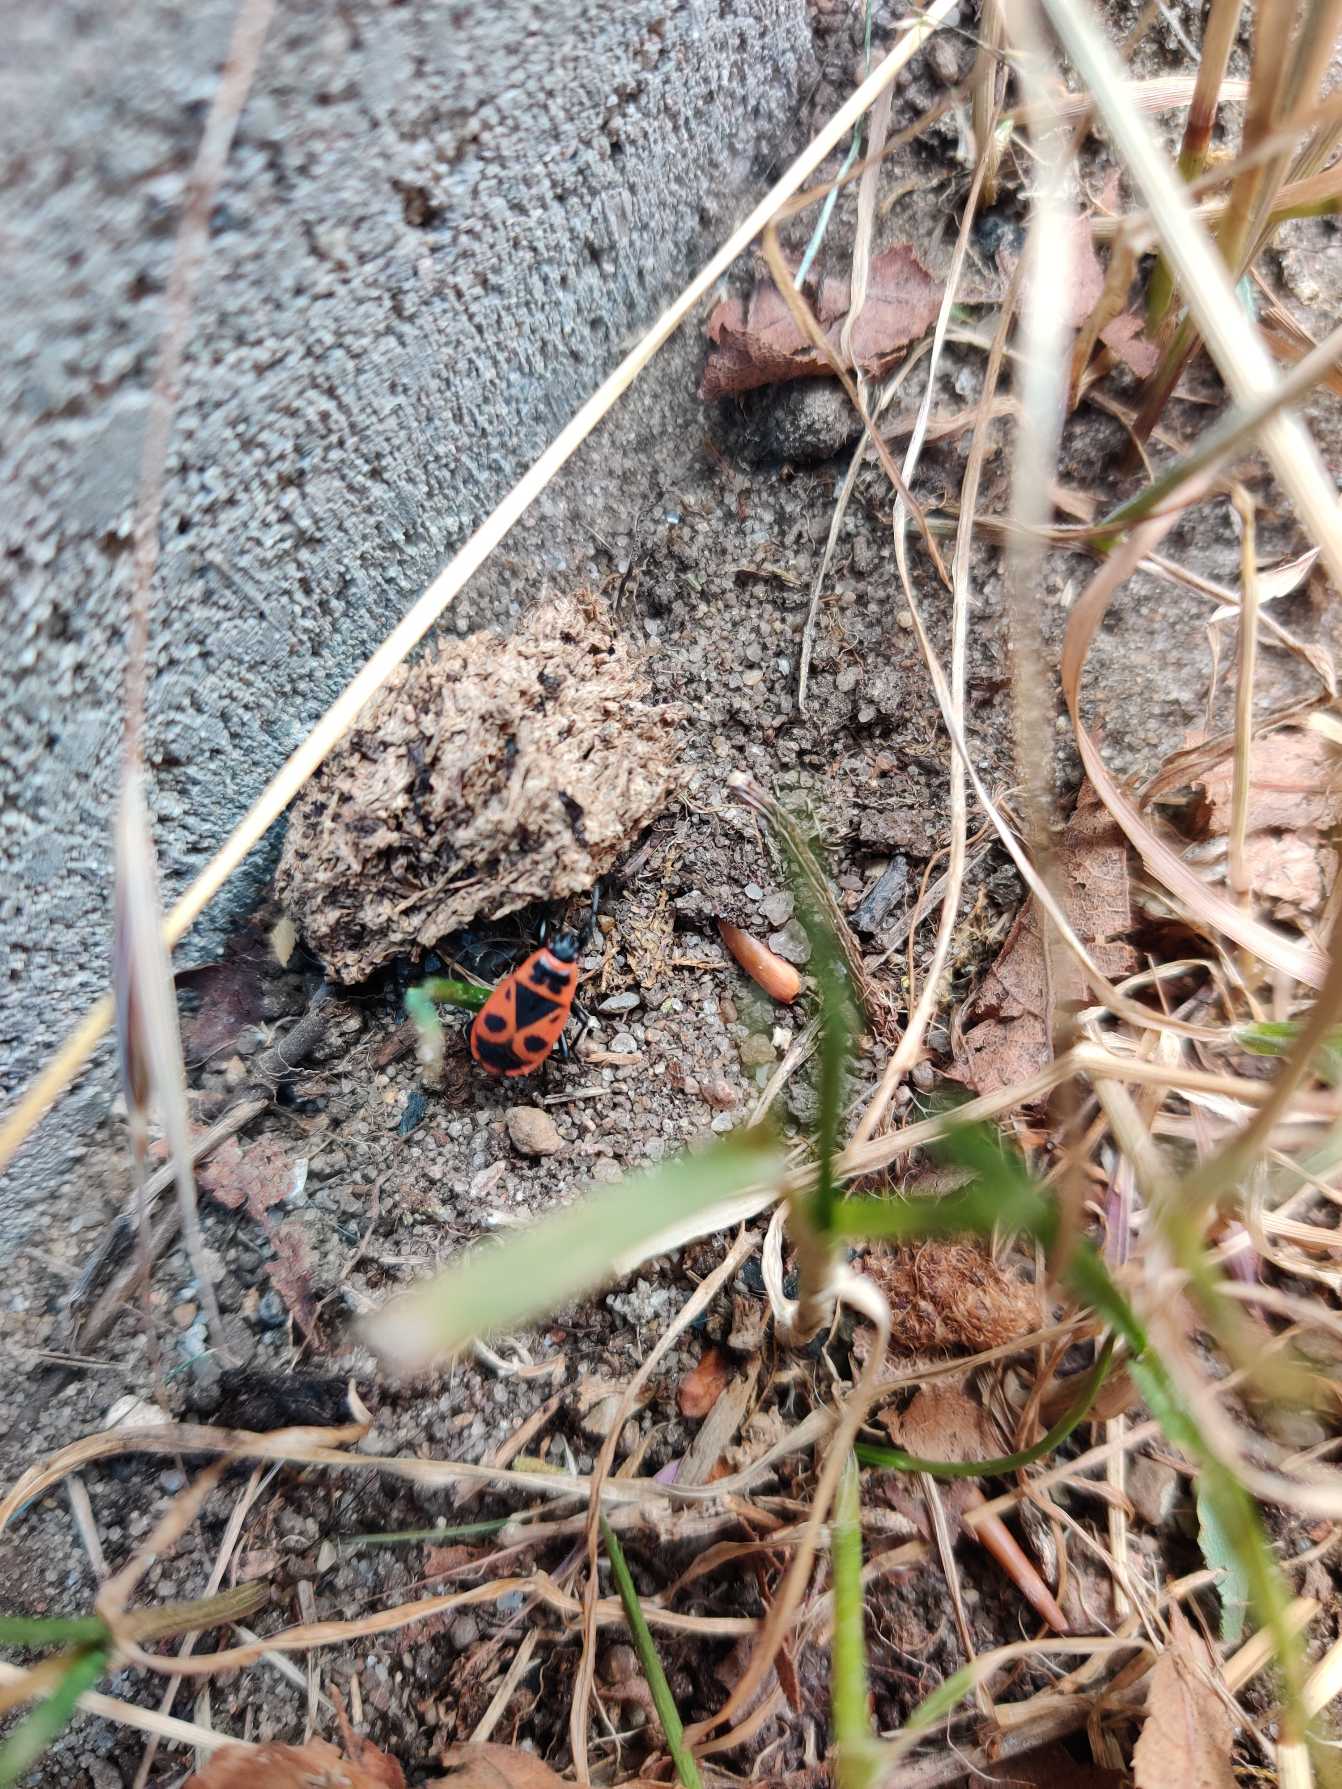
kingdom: Animalia
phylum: Arthropoda
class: Insecta
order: Hemiptera
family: Pyrrhocoridae
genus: Pyrrhocoris
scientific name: Pyrrhocoris apterus
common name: Ildtæge
